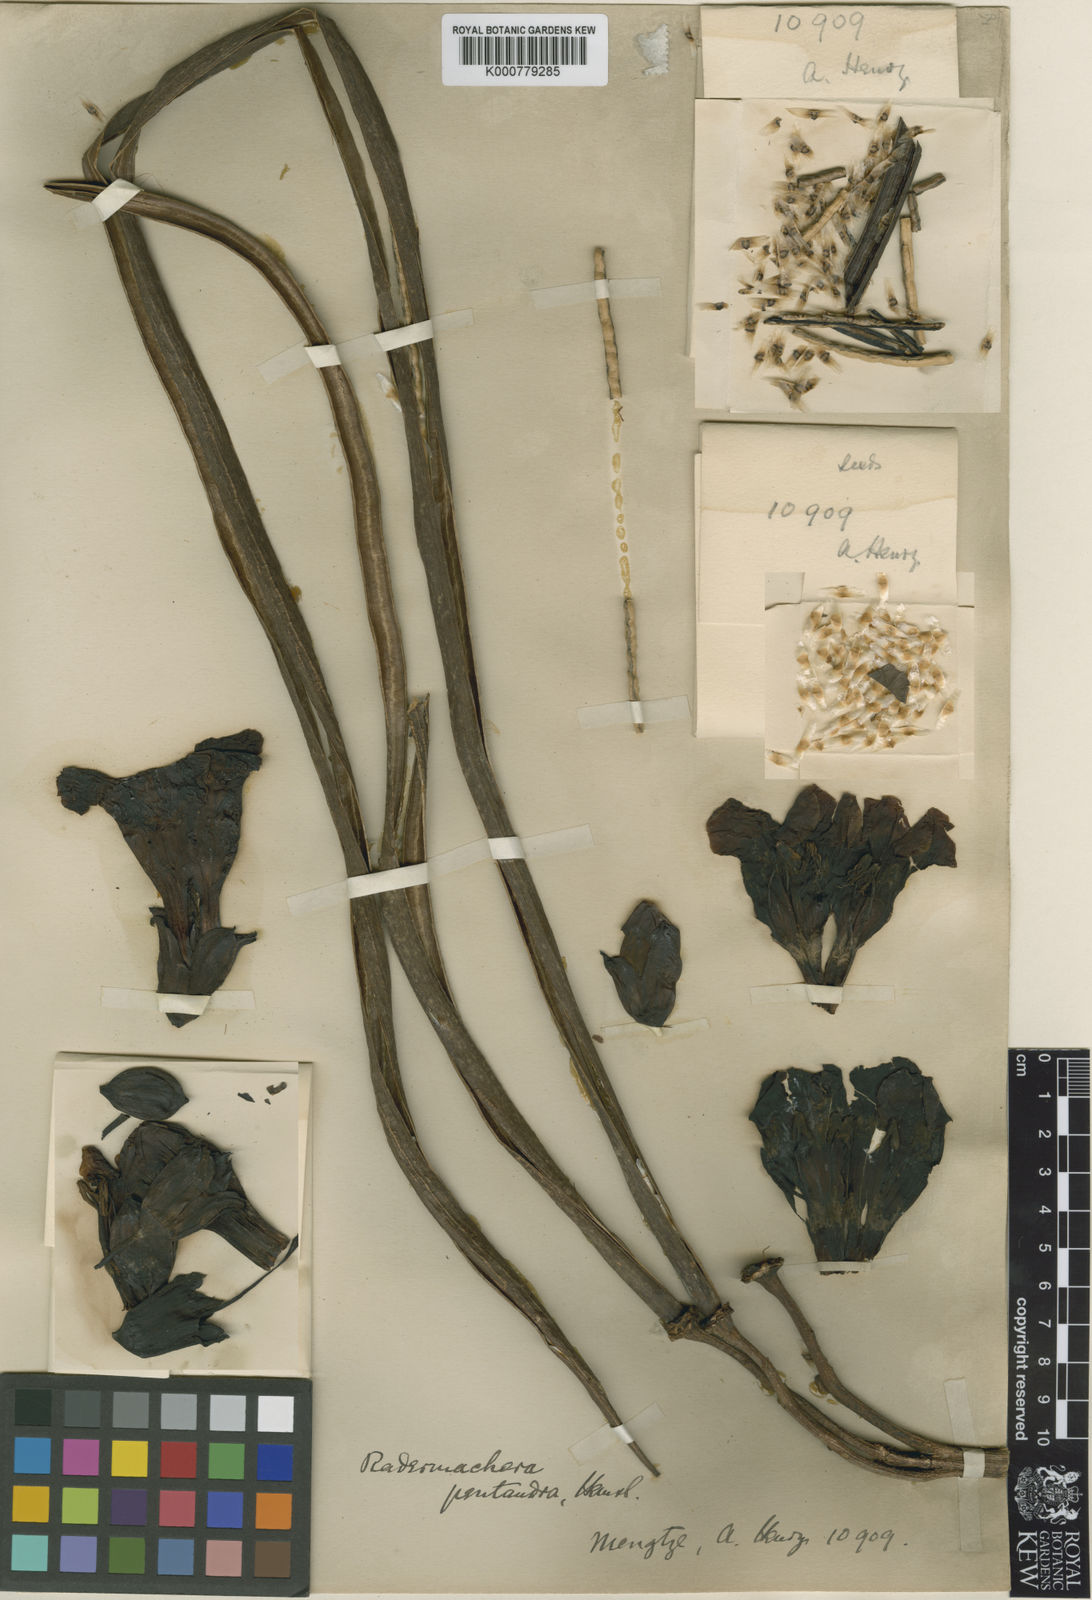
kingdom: Plantae
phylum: Tracheophyta
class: Magnoliopsida
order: Lamiales
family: Bignoniaceae
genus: Radermachera
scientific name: Radermachera pentandra
